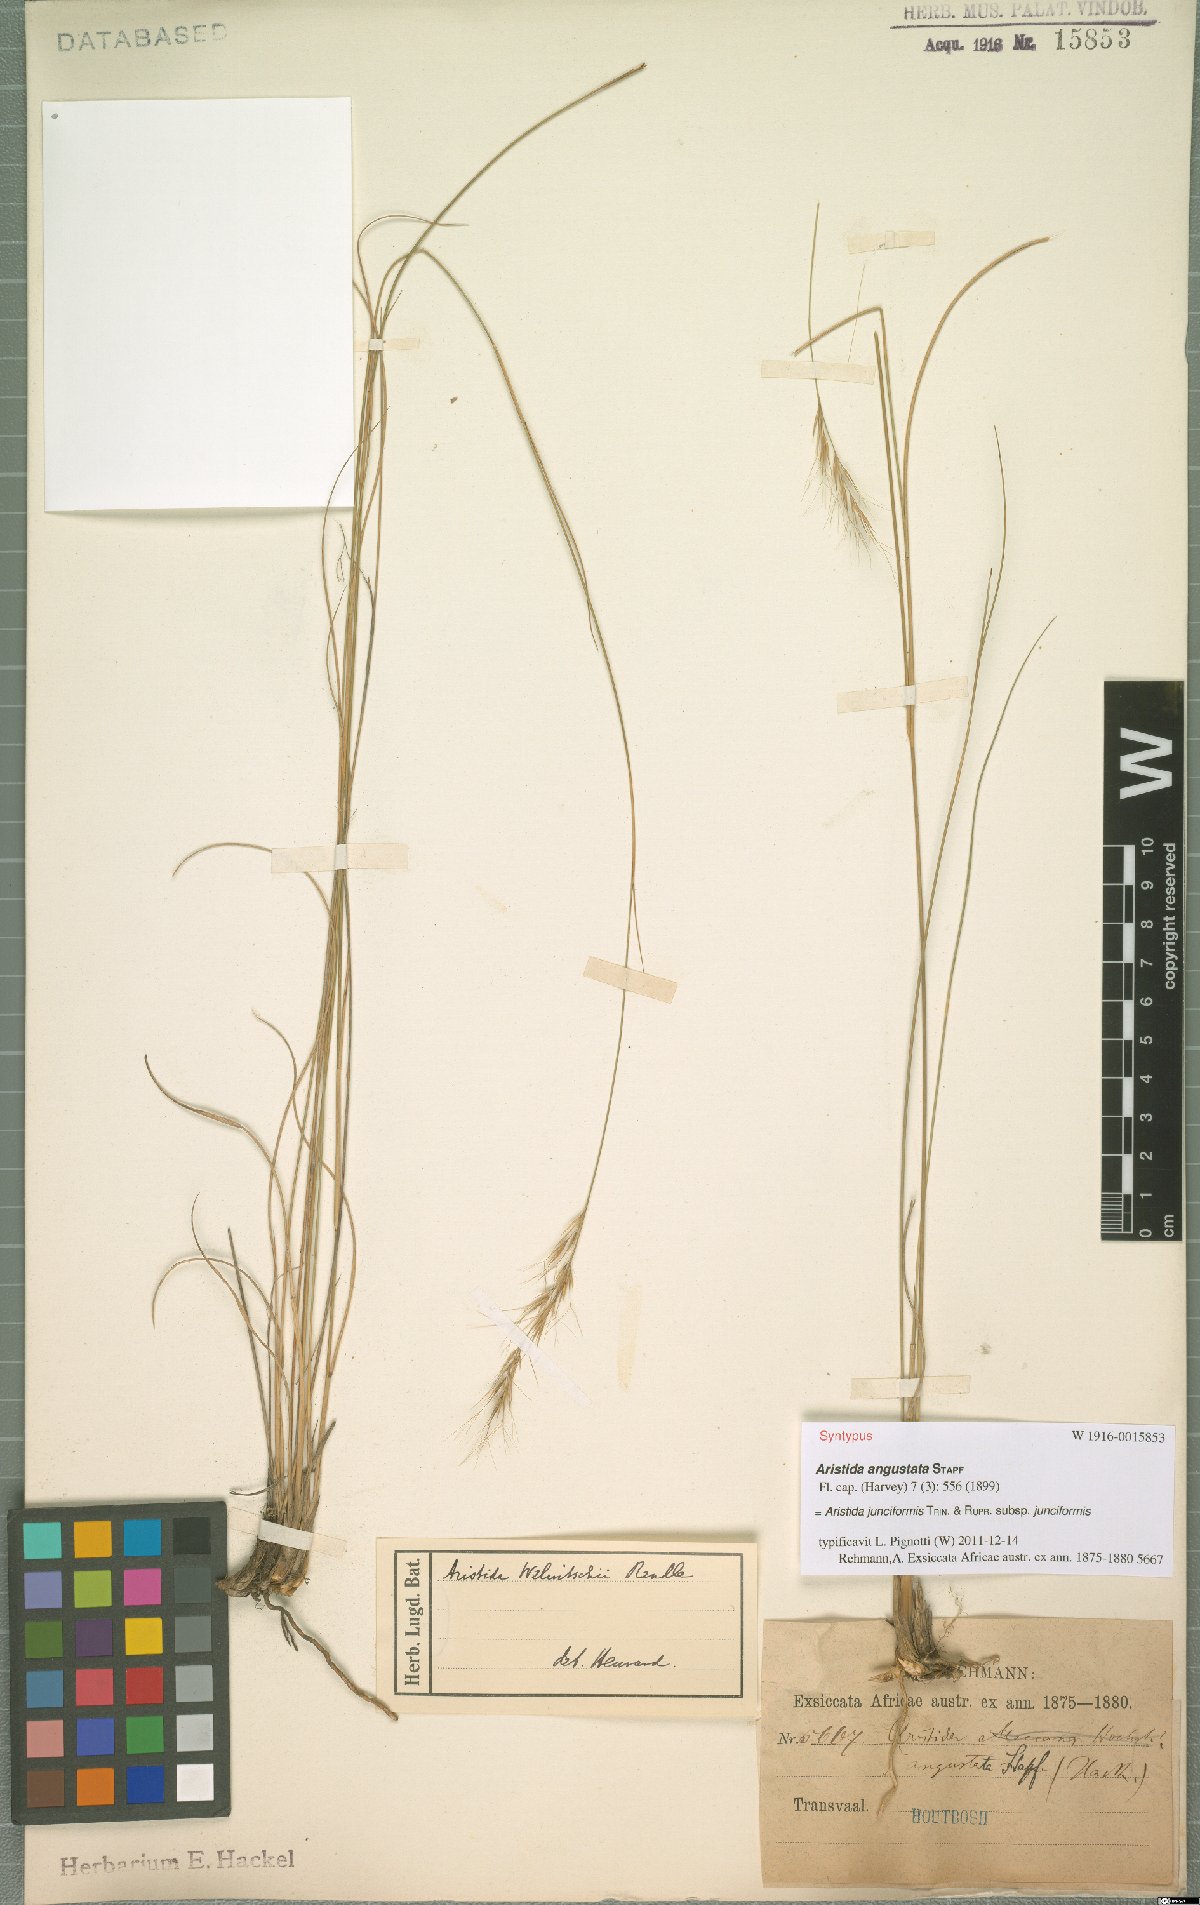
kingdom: Plantae
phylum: Tracheophyta
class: Liliopsida
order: Poales
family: Poaceae
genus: Aristida
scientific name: Aristida junciformis
